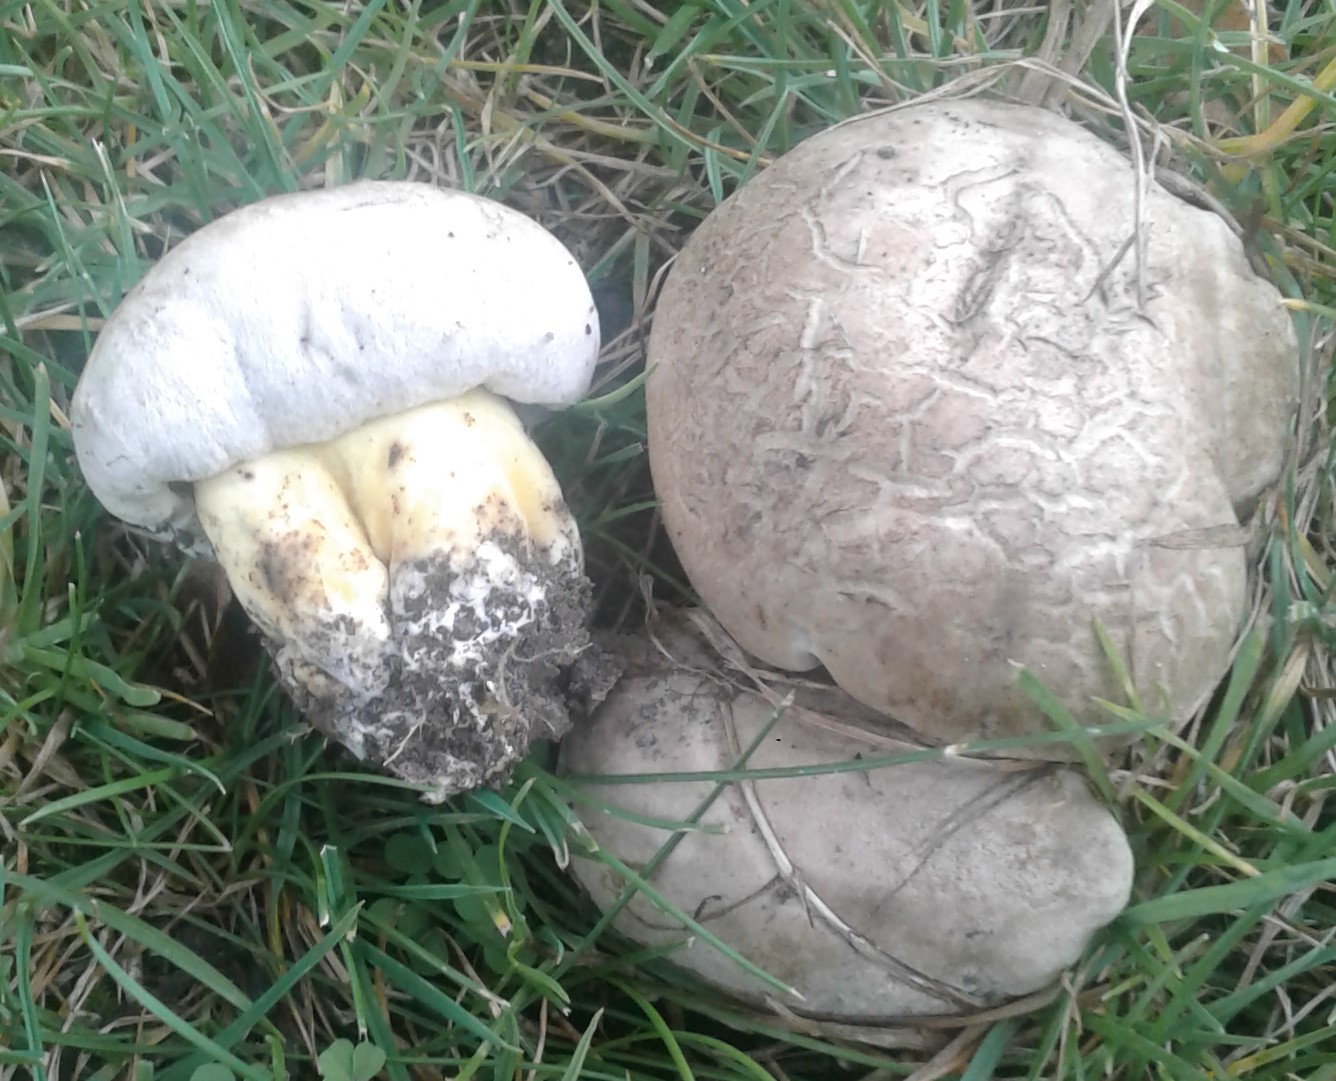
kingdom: Fungi
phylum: Basidiomycota
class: Agaricomycetes
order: Boletales
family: Boletaceae
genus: Caloboletus
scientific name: Caloboletus radicans
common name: rod-rørhat
